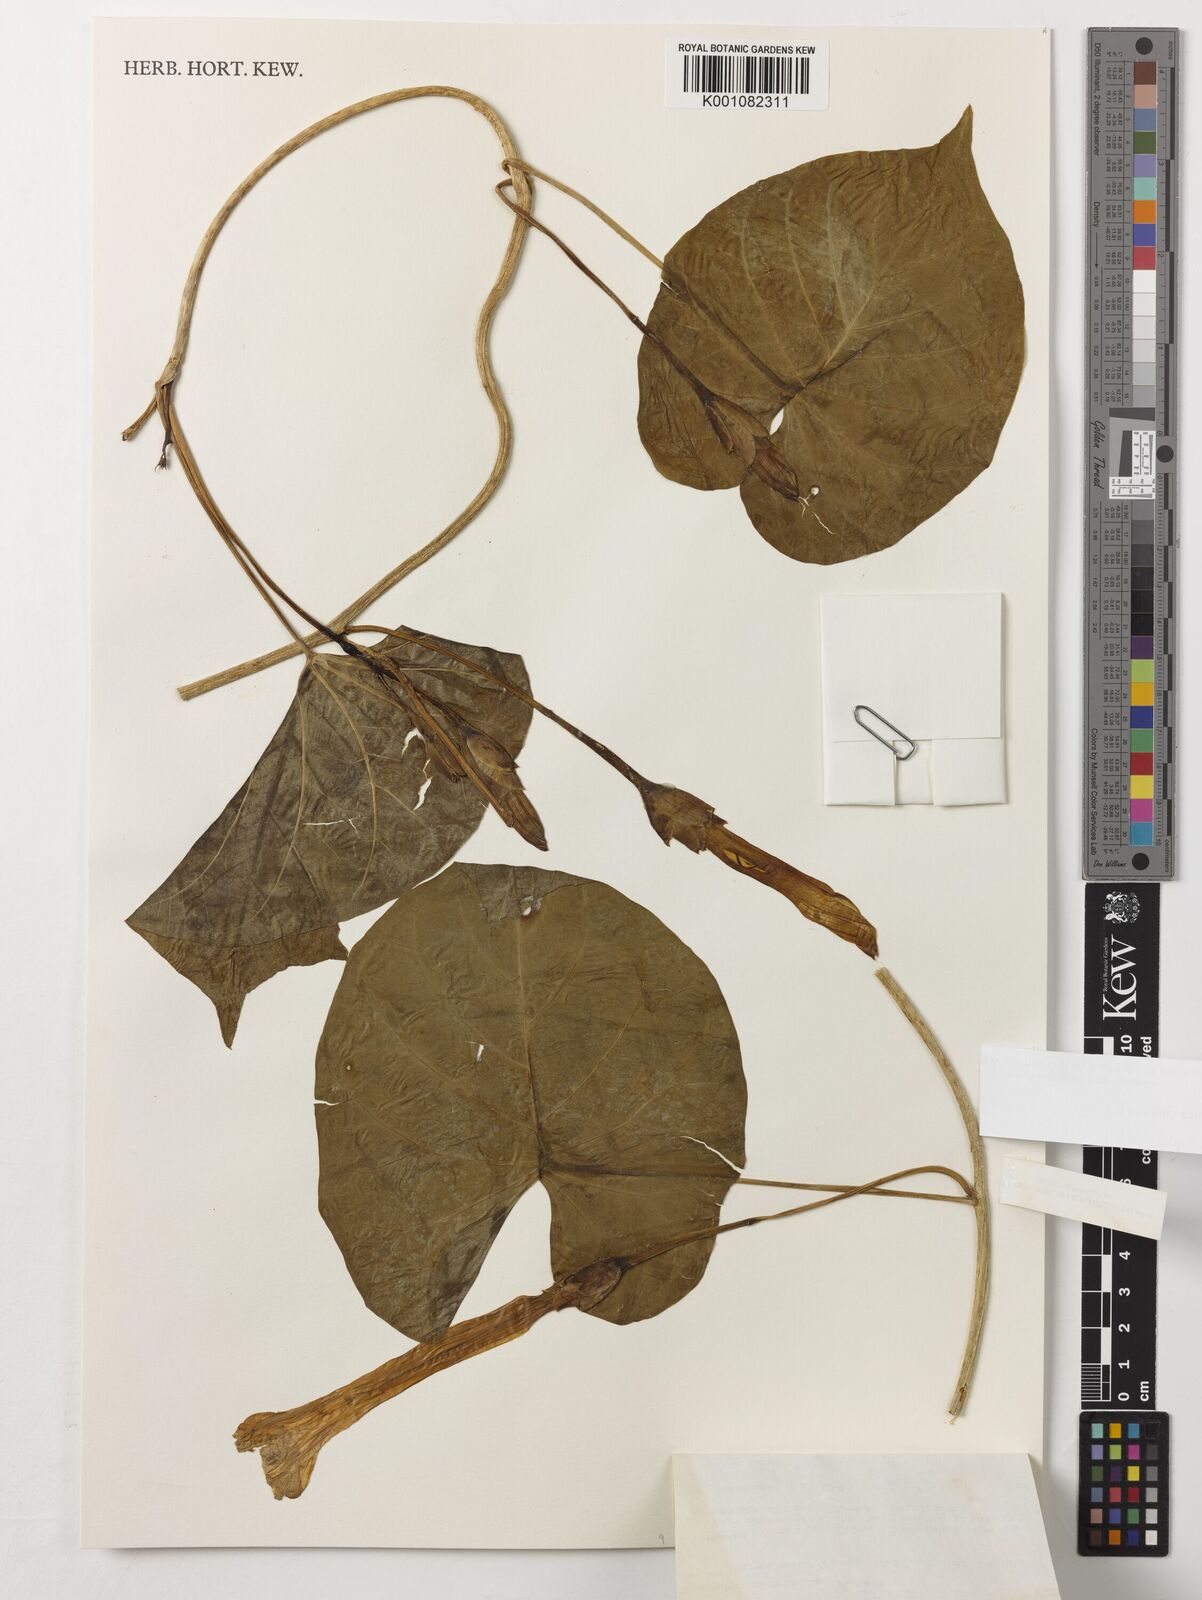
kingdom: Plantae
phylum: Tracheophyta
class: Magnoliopsida
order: Solanales
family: Convolvulaceae
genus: Ipomoea
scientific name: Ipomoea violacea
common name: Beach moonflower
